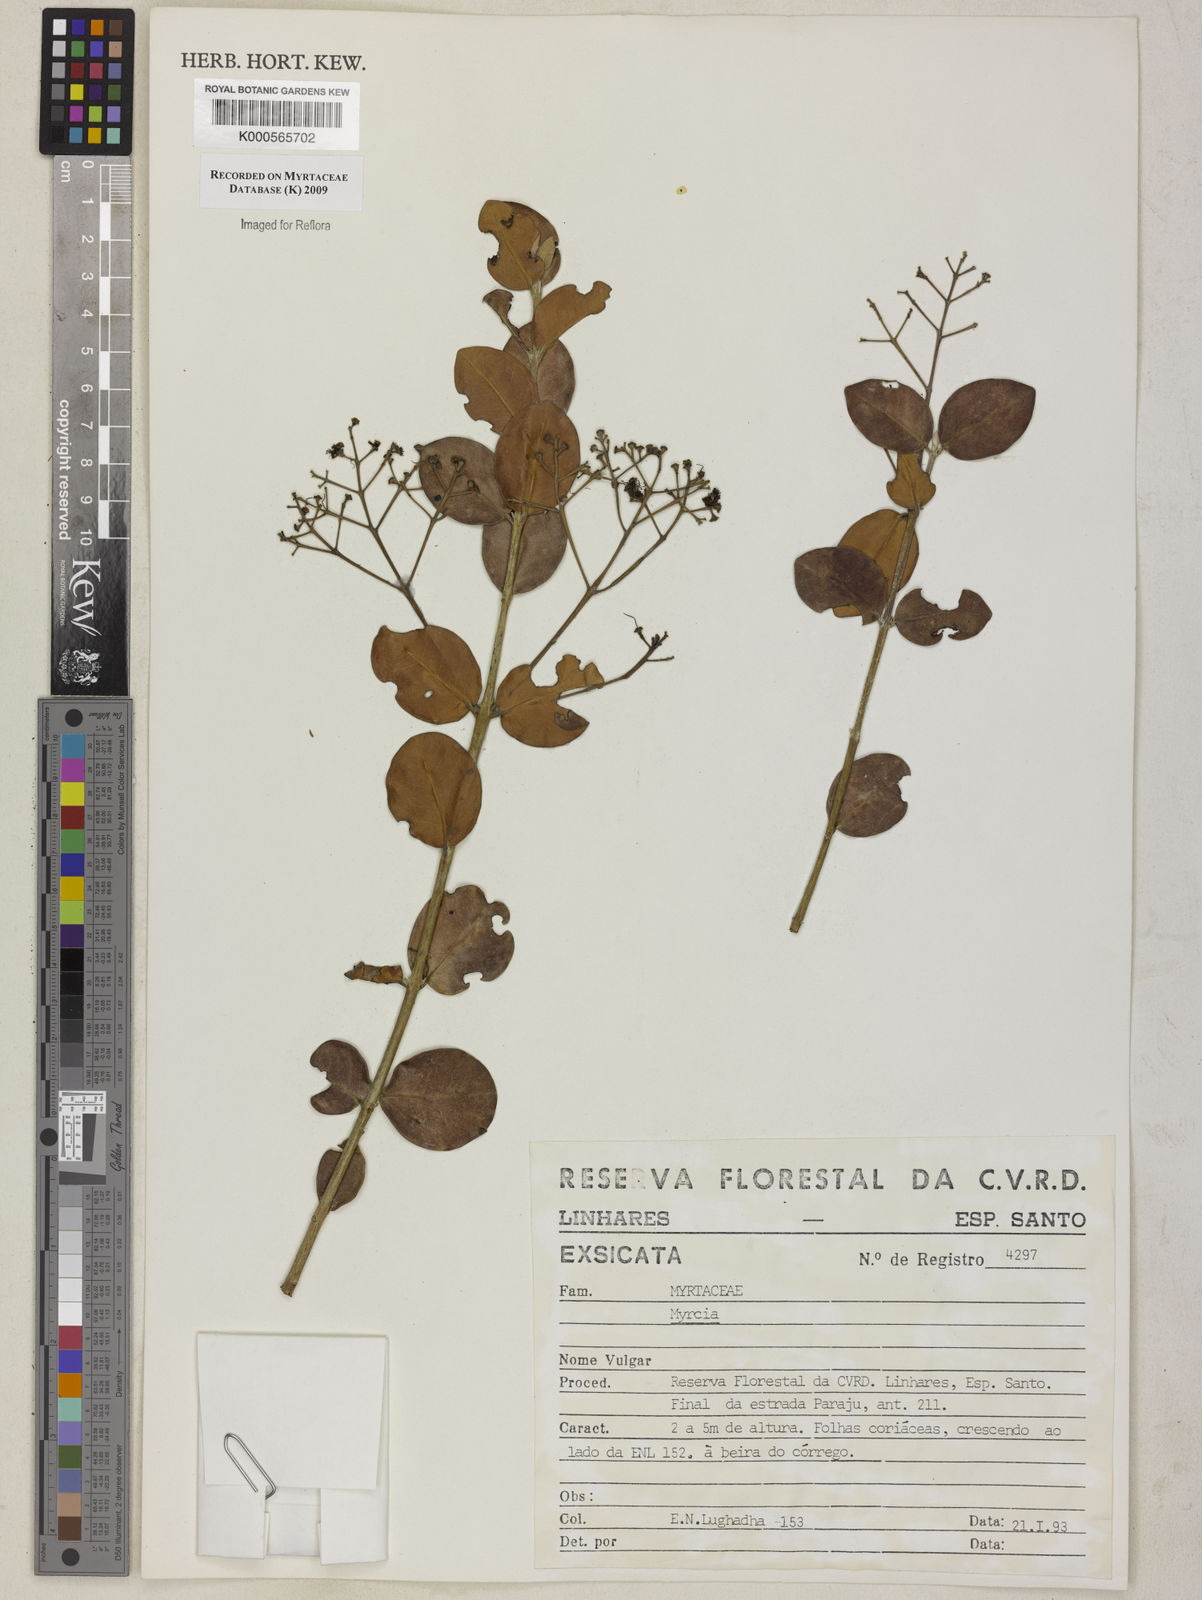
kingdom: Plantae
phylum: Tracheophyta
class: Magnoliopsida
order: Myrtales
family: Myrtaceae
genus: Myrcia
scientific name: Myrcia
